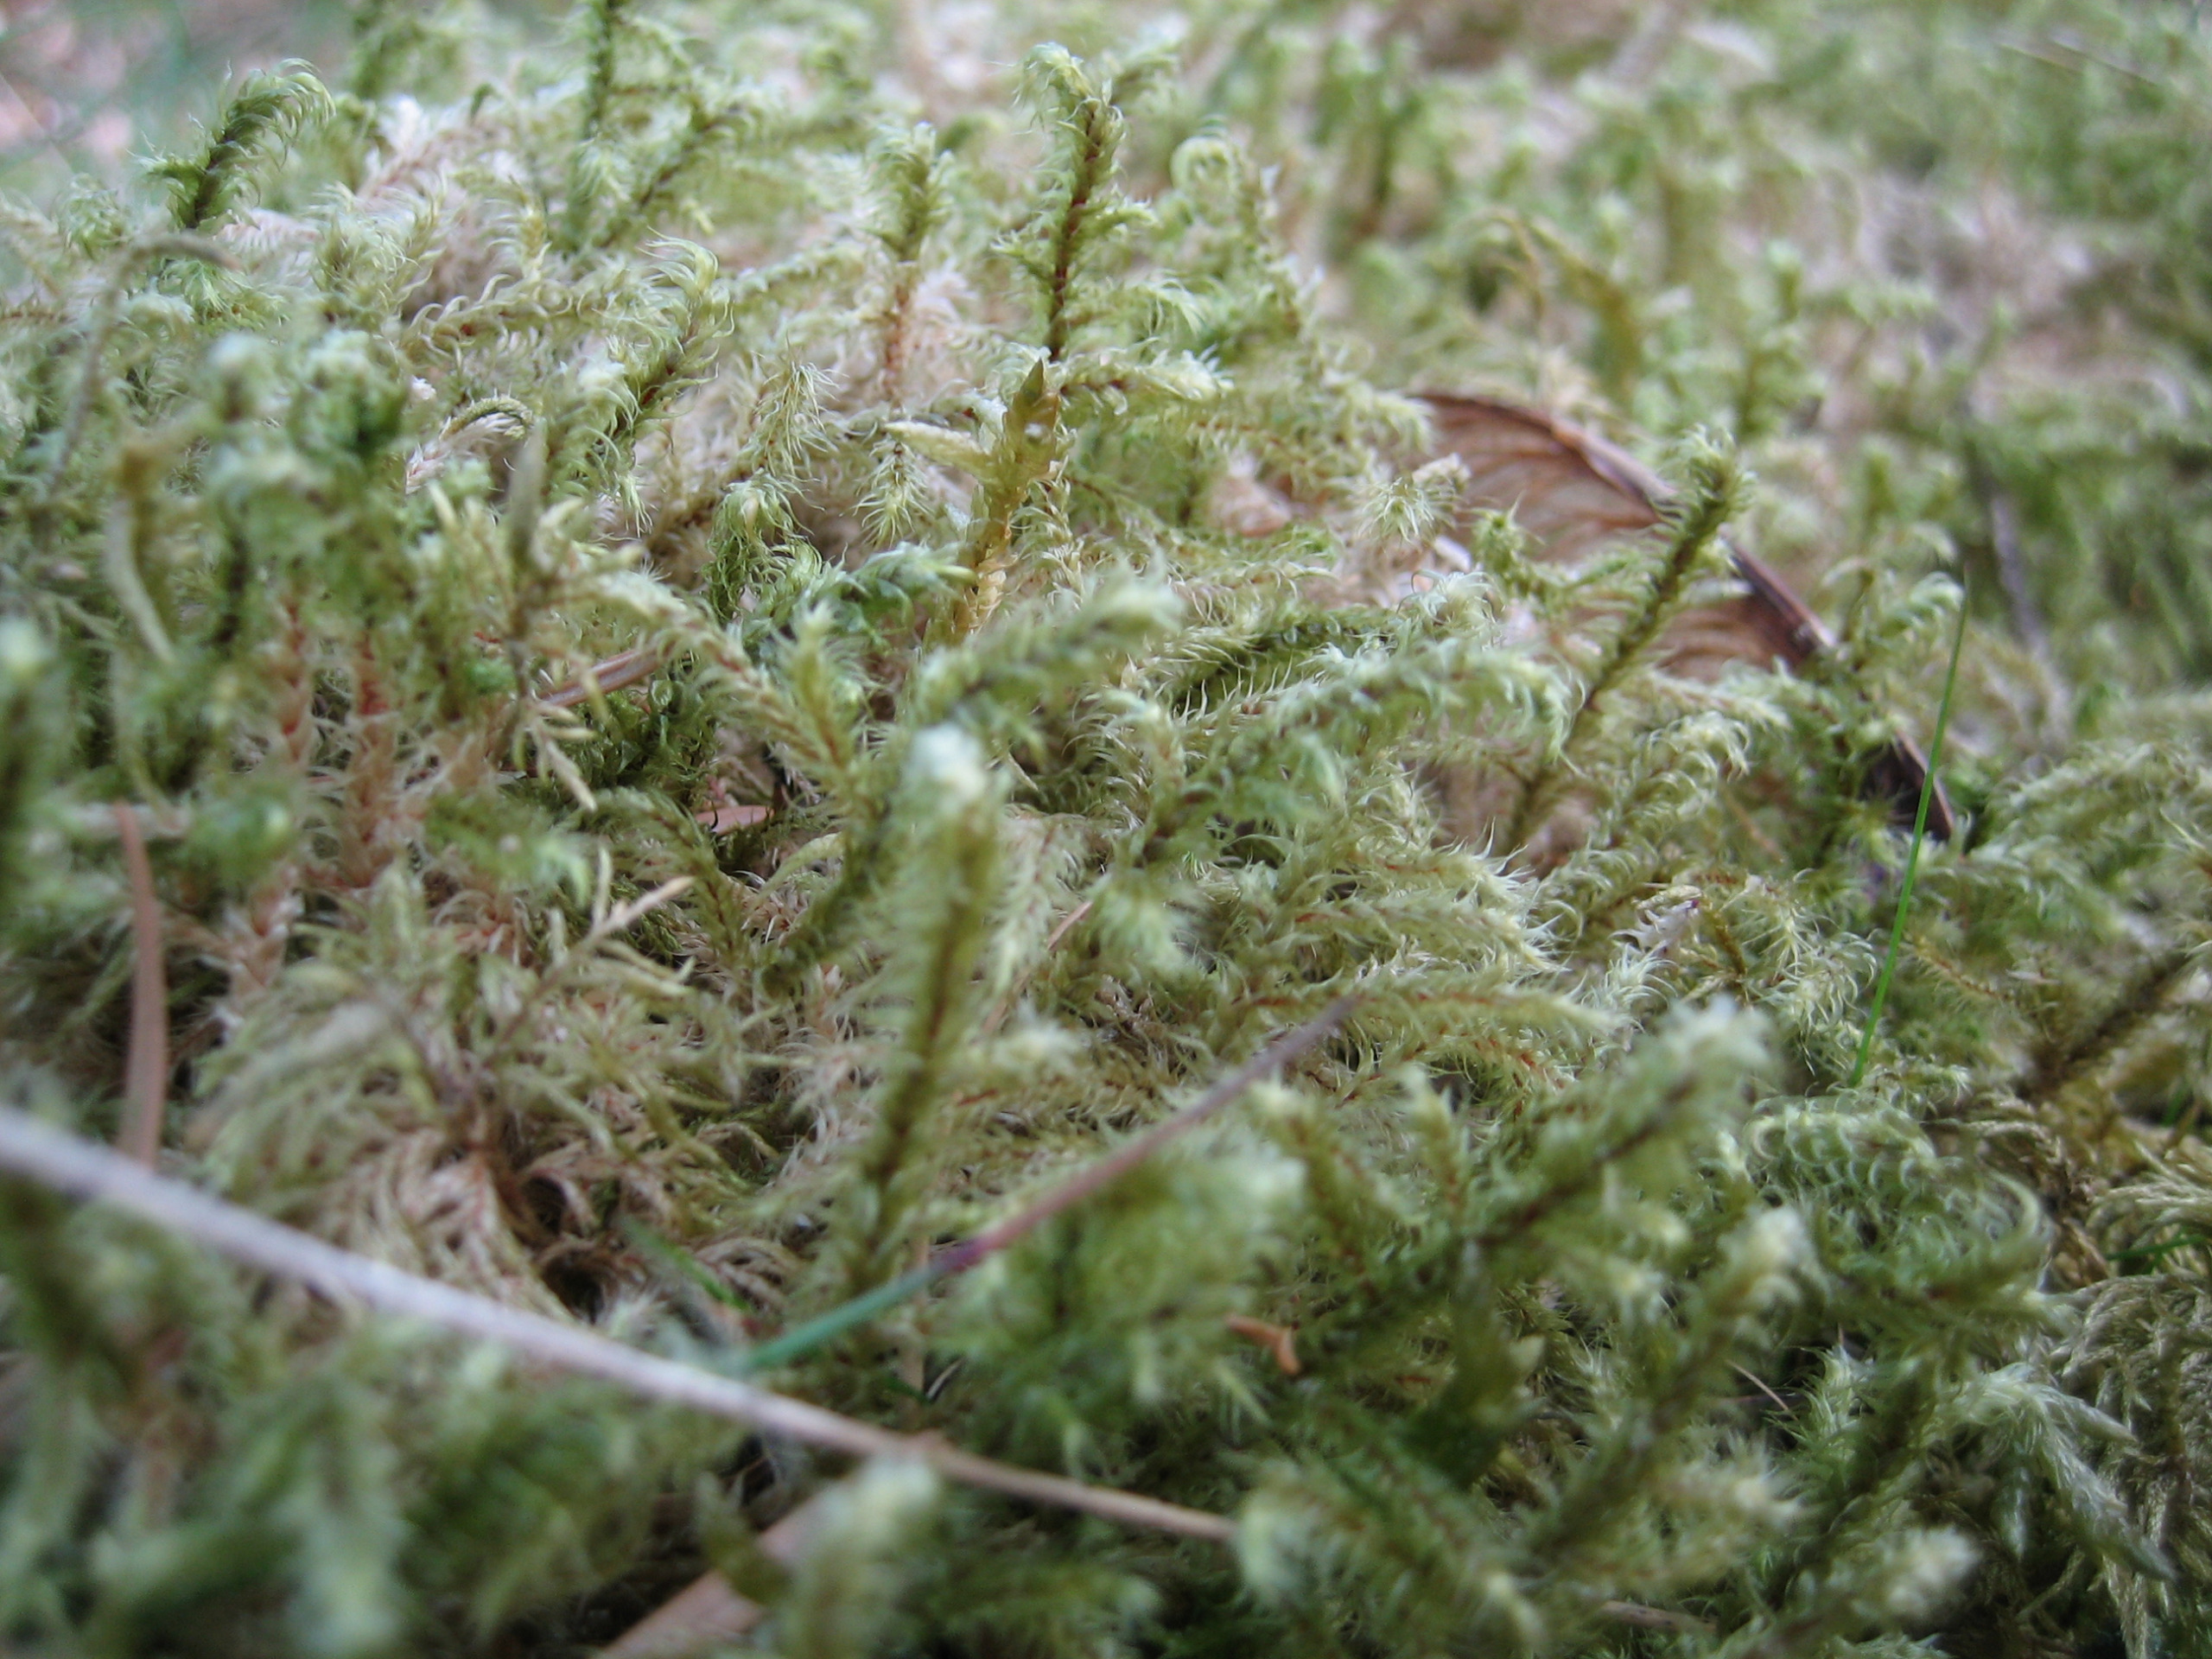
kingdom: Plantae
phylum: Bryophyta
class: Bryopsida
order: Hypnales
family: Hylocomiaceae
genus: Rhytidiadelphus
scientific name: Rhytidiadelphus loreus
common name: Ulvefod-kransemos
